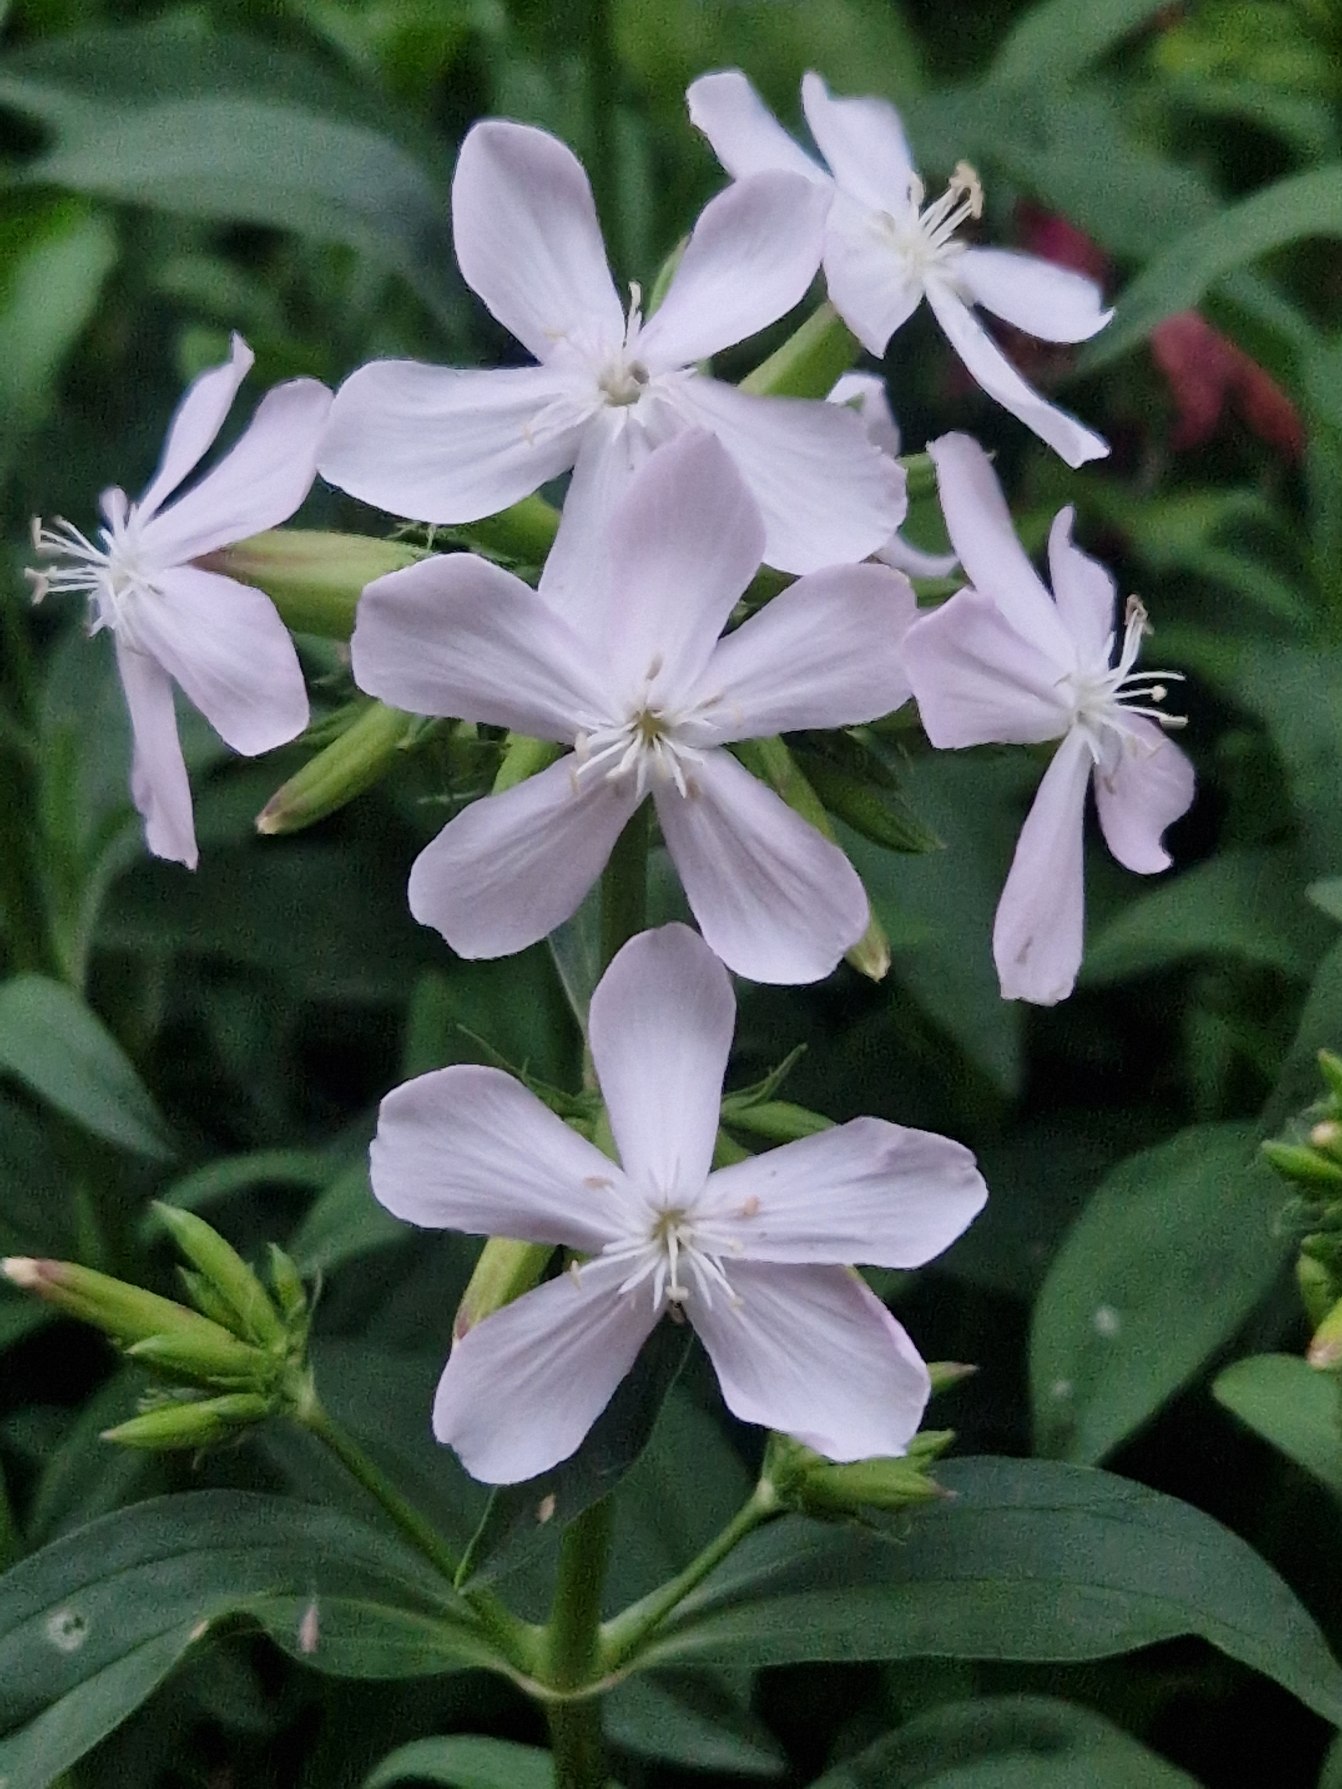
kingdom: Plantae
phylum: Tracheophyta
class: Magnoliopsida
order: Caryophyllales
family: Caryophyllaceae
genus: Saponaria
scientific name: Saponaria officinalis
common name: Sæbeurt
